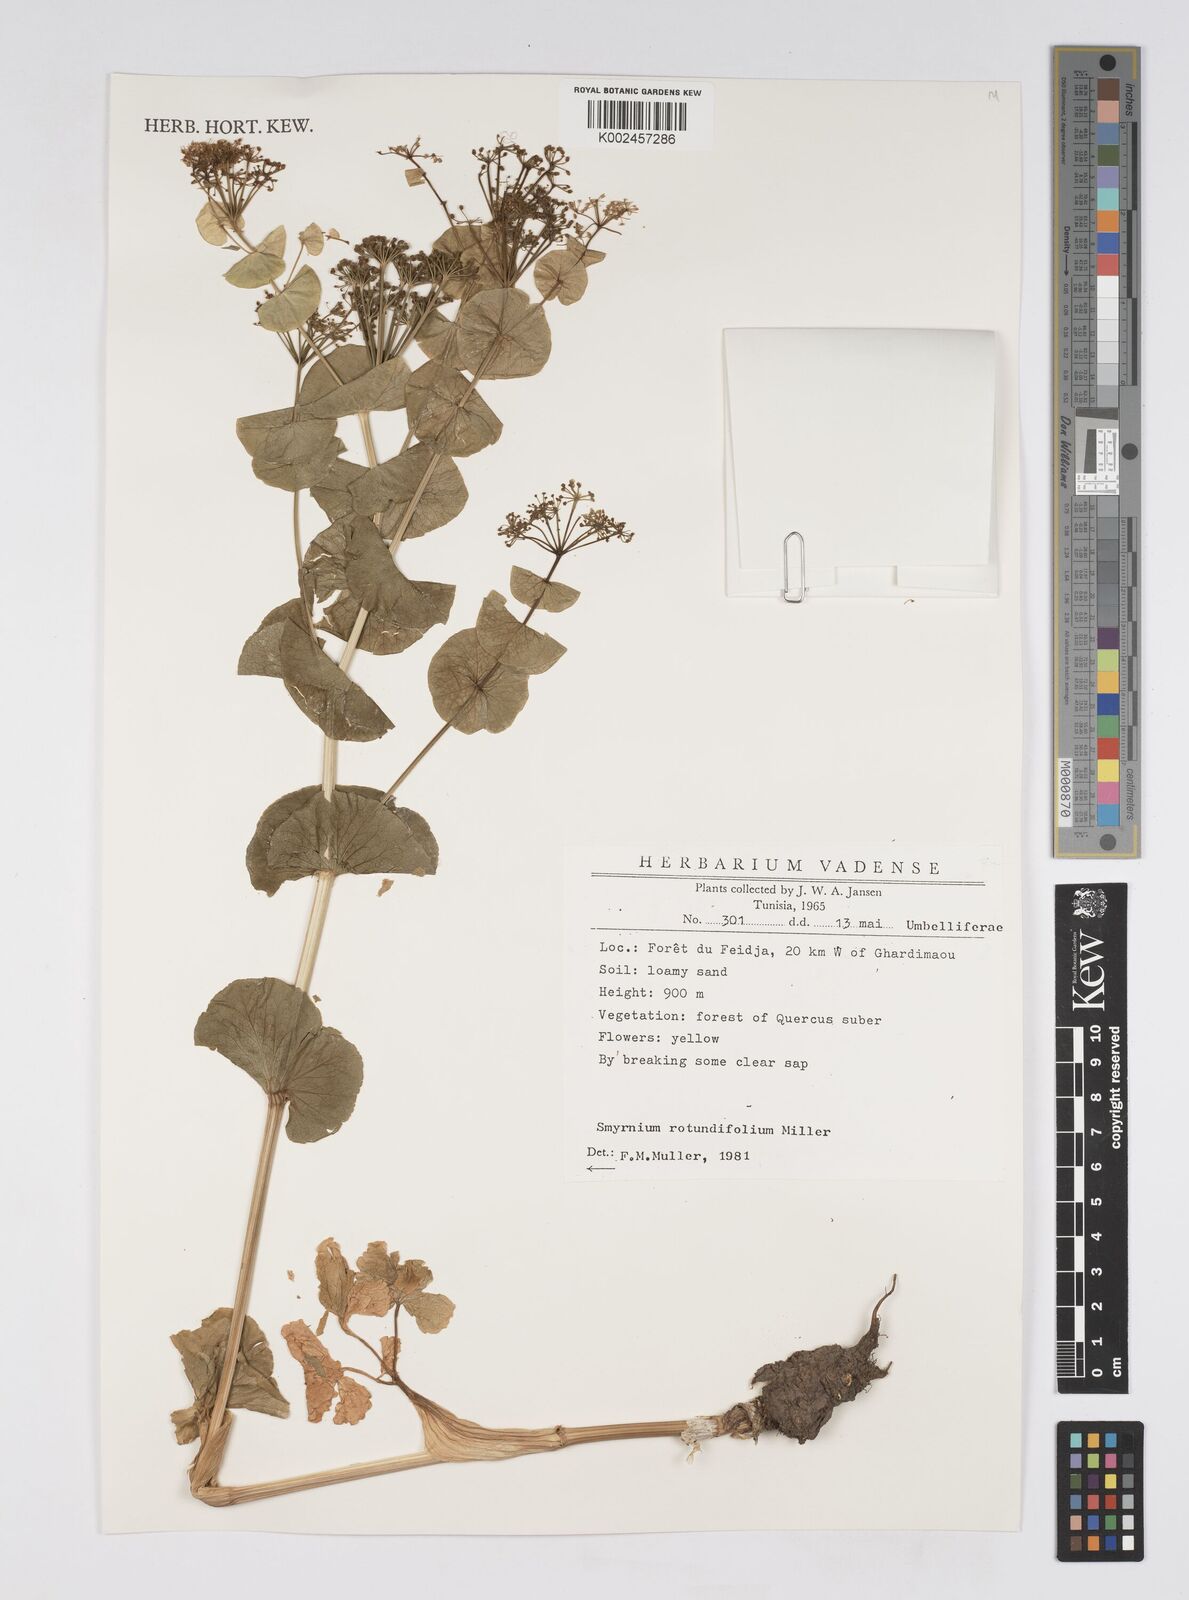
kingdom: Plantae
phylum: Tracheophyta
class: Magnoliopsida
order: Apiales
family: Apiaceae
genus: Smyrnium
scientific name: Smyrnium
